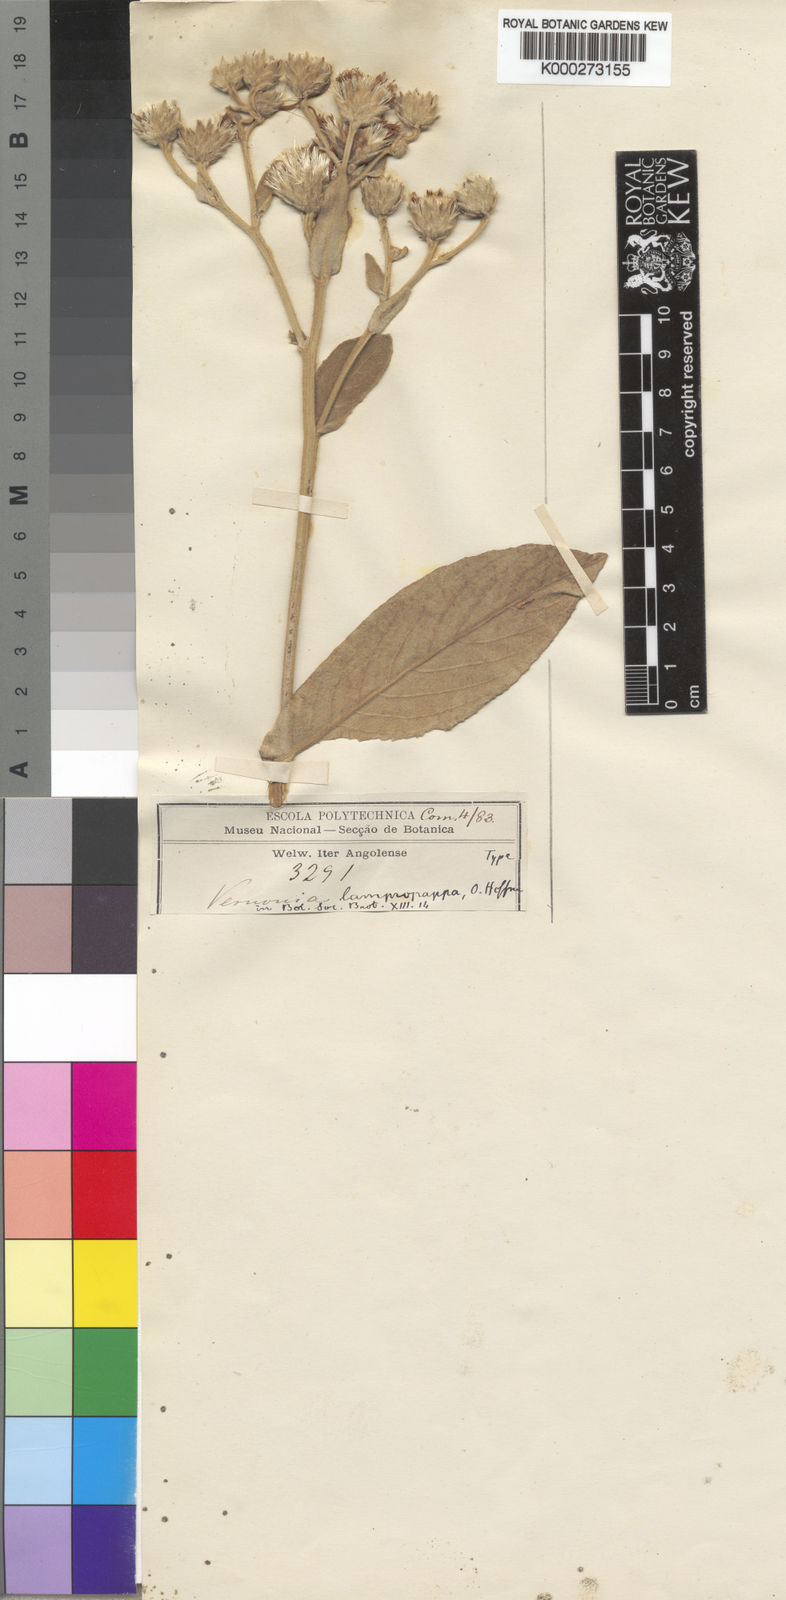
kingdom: Plantae
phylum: Tracheophyta
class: Magnoliopsida
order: Asterales
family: Asteraceae
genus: Lampropappus
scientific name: Lampropappus hoffmannii
